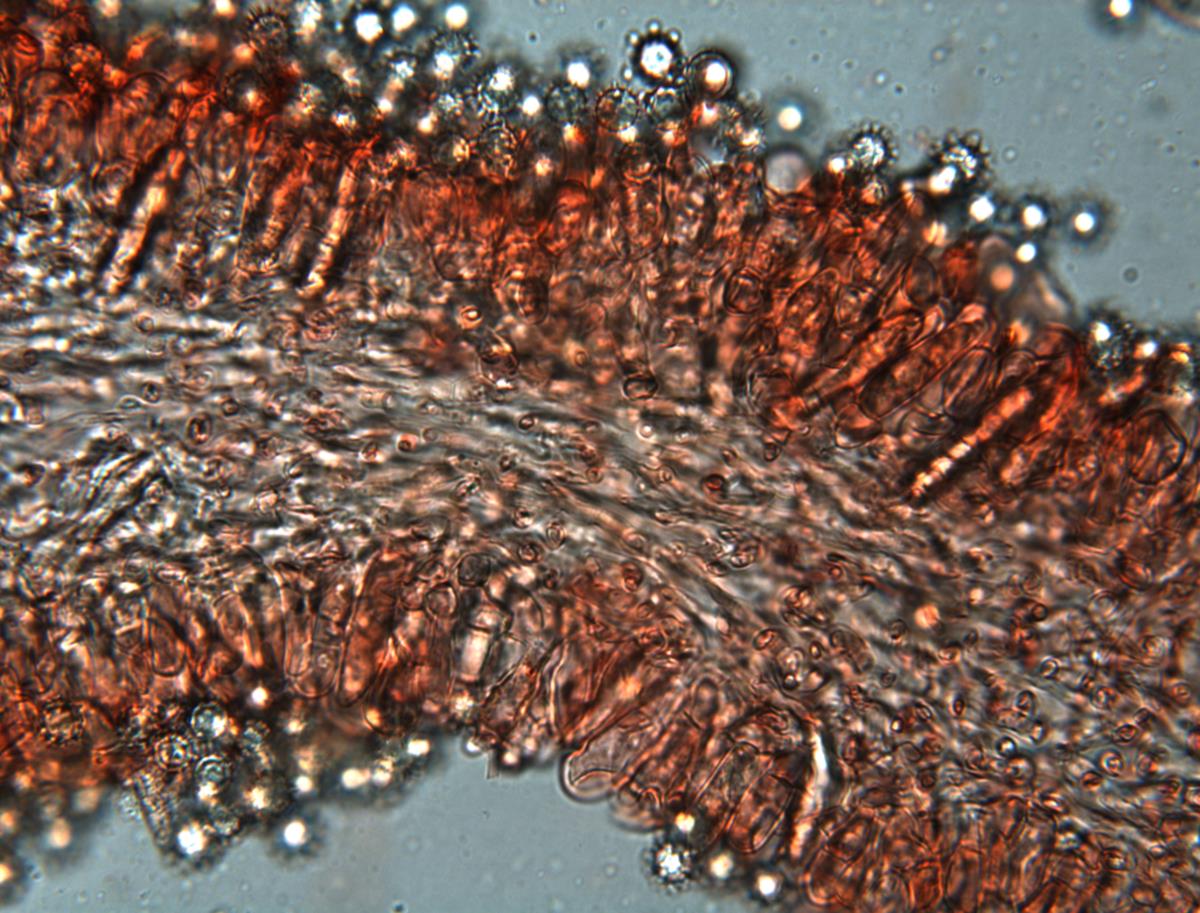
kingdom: Fungi
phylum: Basidiomycota
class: Agaricomycetes
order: Russulales
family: Russulaceae
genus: Zelleromyces
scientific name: Zelleromyces
